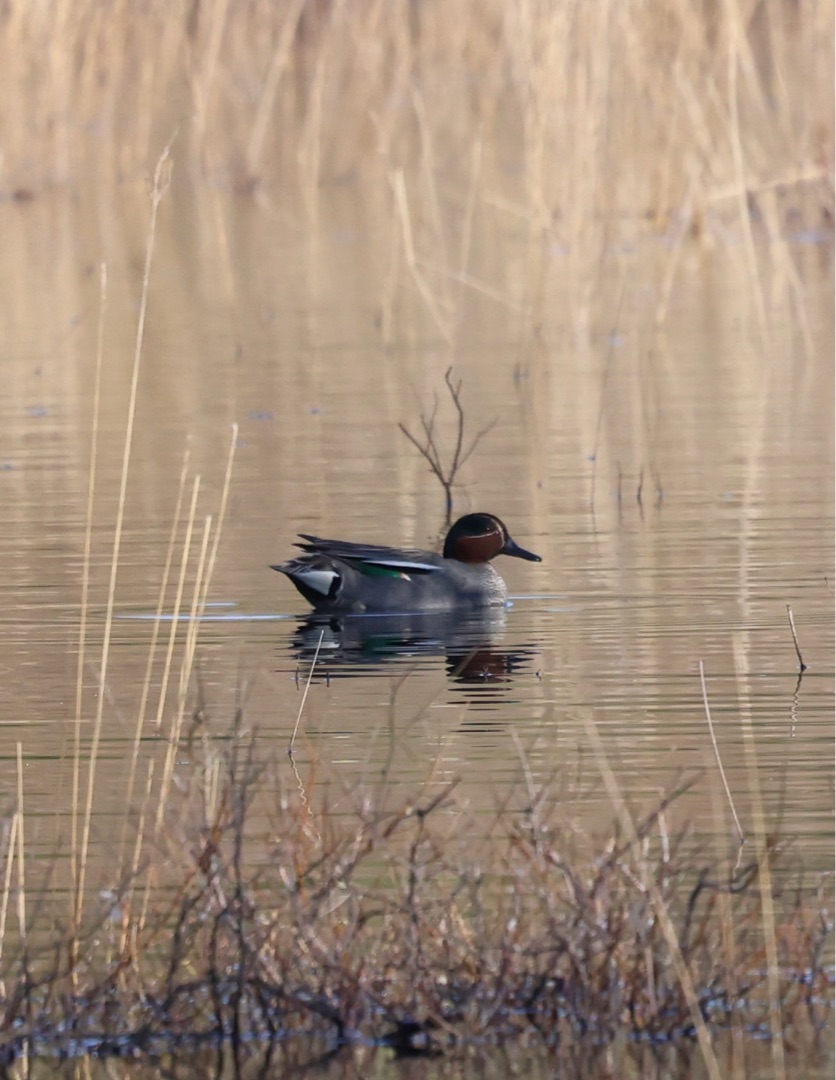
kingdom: Animalia
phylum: Chordata
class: Aves
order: Anseriformes
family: Anatidae
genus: Anas
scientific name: Anas crecca
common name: Krikand
